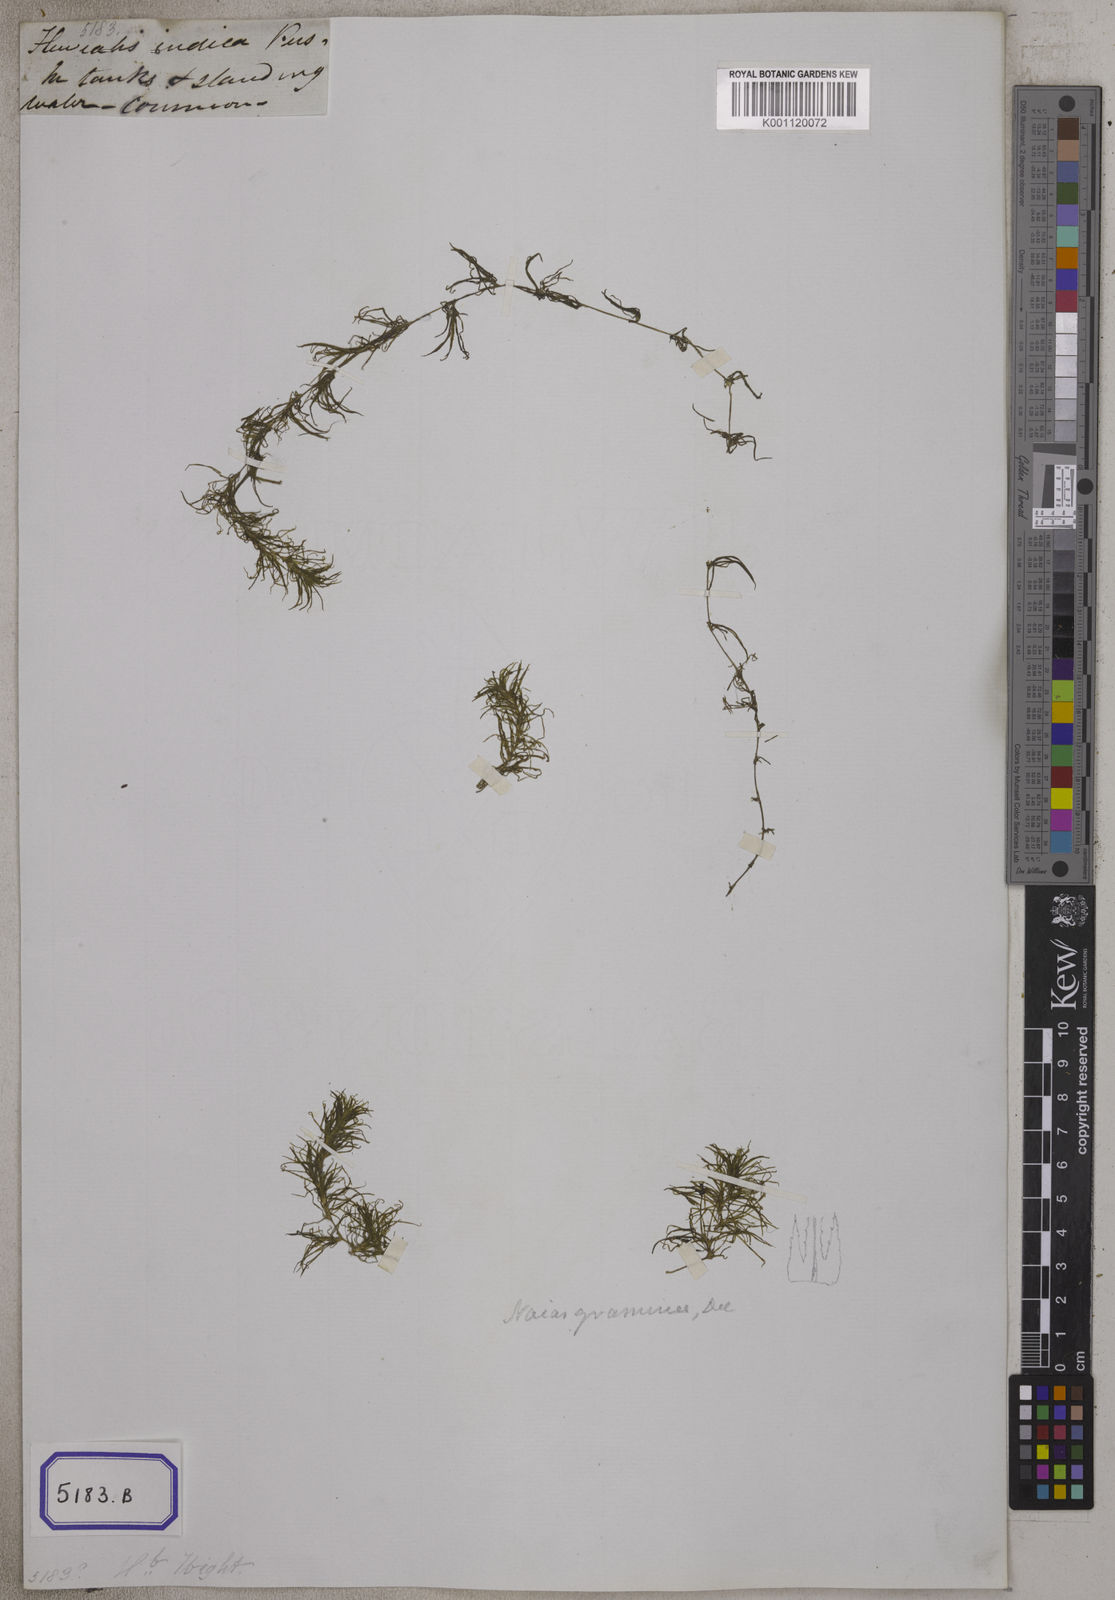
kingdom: Plantae
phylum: Tracheophyta
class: Liliopsida
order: Alismatales
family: Hydrocharitaceae
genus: Najas
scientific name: Najas indica
